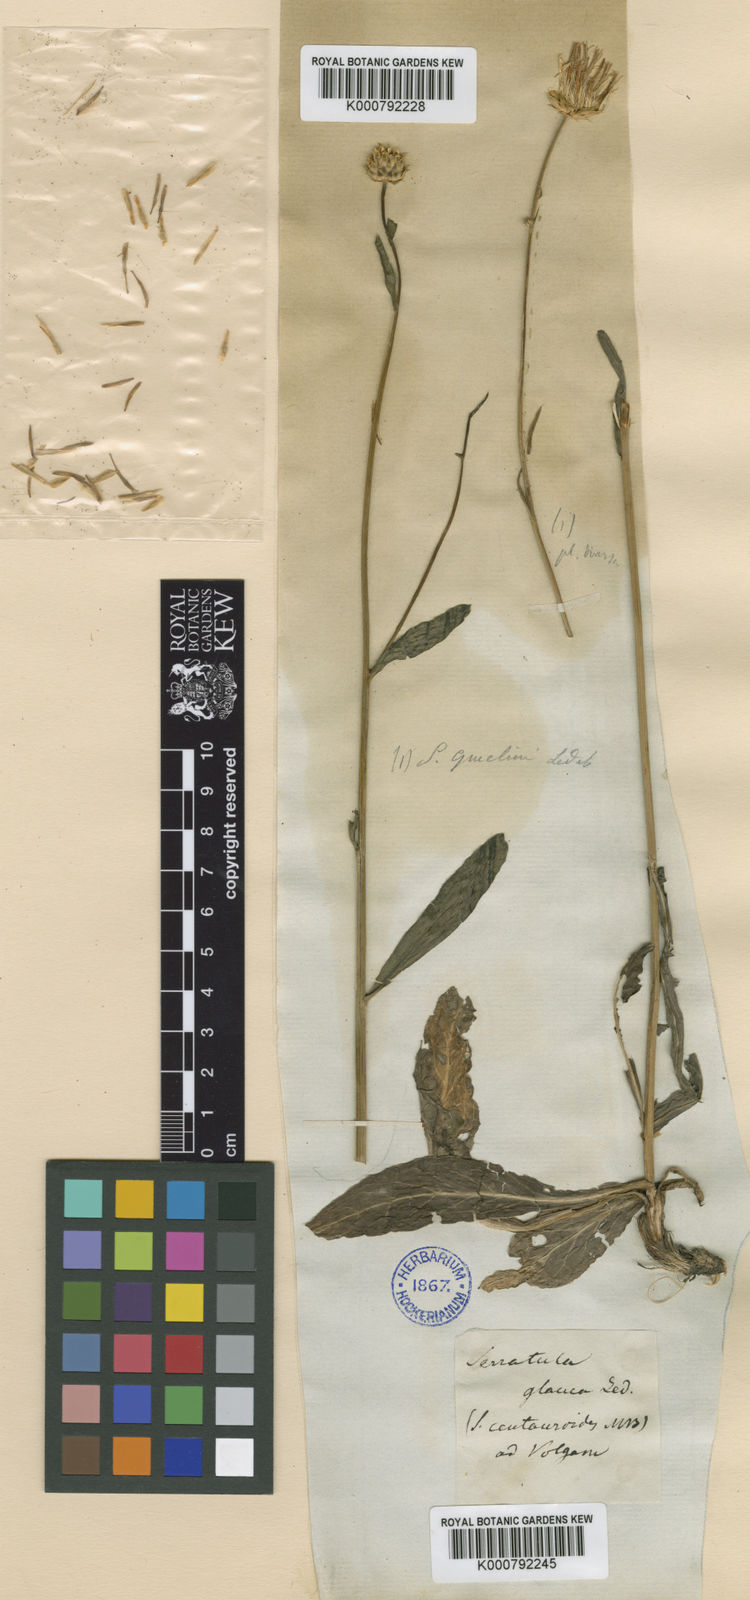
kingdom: Plantae
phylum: Tracheophyta
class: Magnoliopsida
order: Asterales
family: Asteraceae
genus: Serratula
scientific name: Serratula
